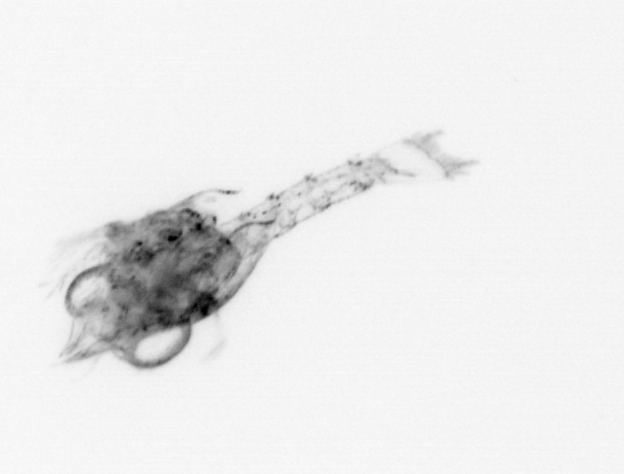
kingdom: Animalia
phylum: Arthropoda
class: Malacostraca
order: Decapoda
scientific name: Decapoda
